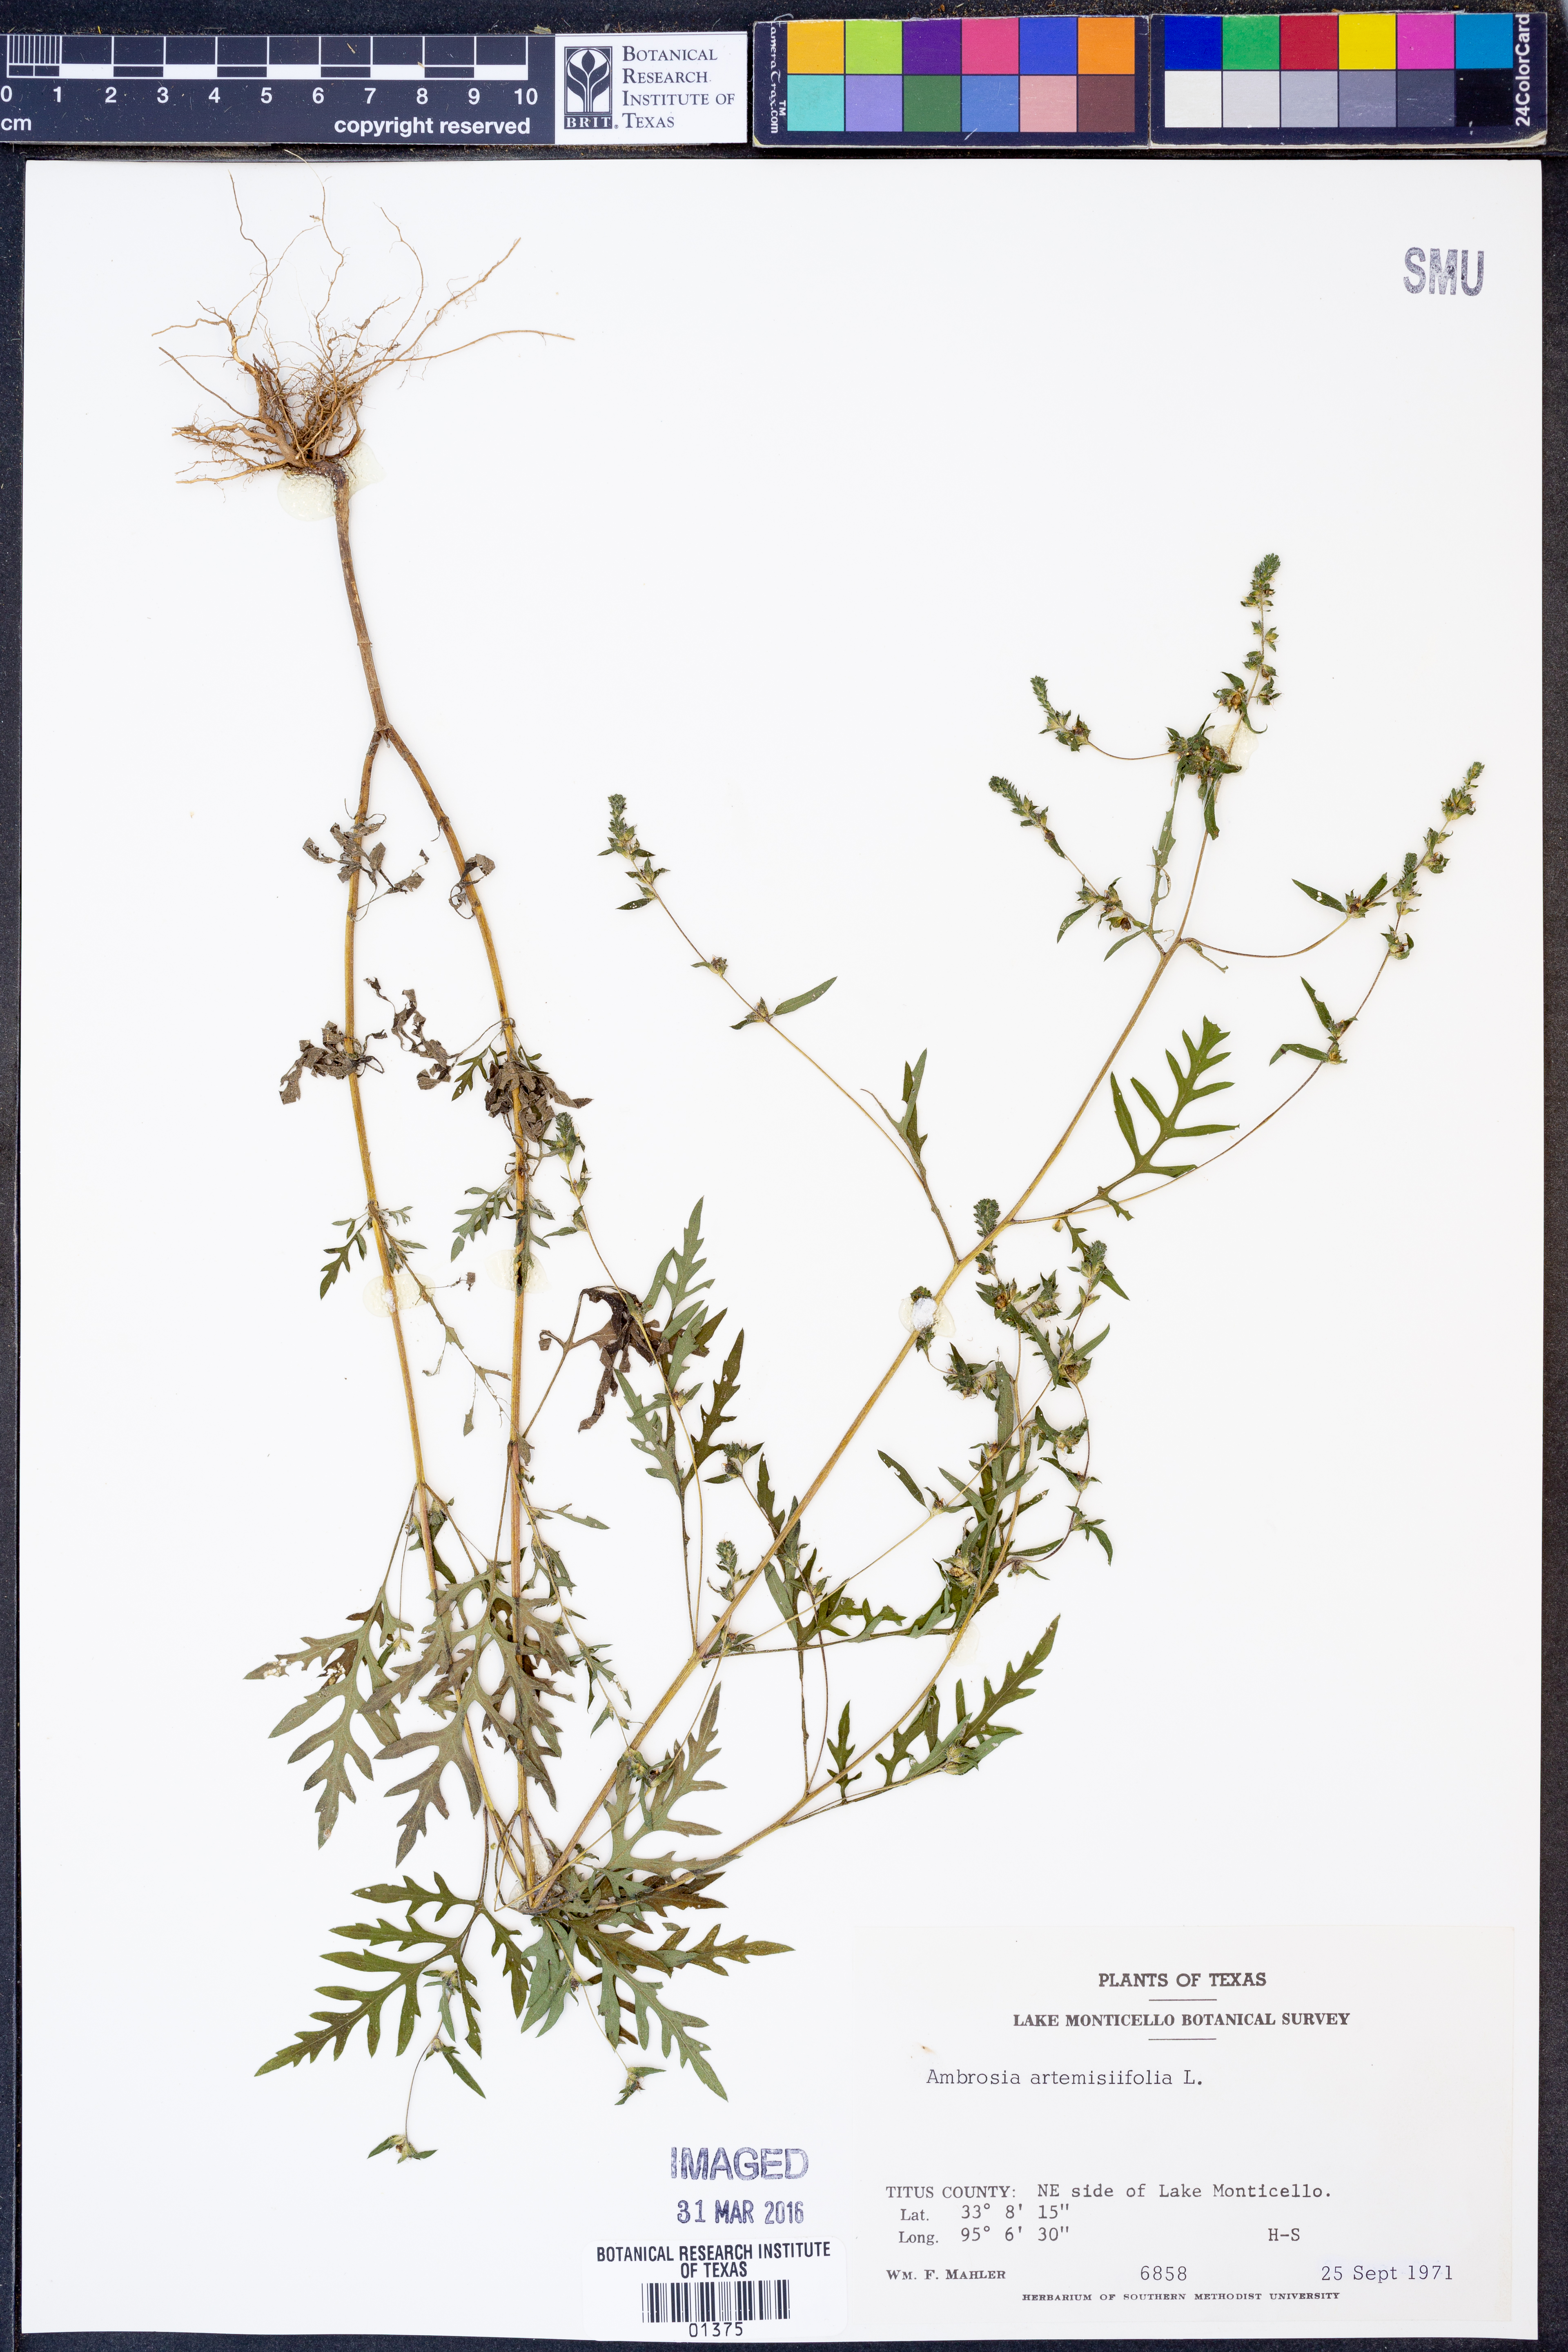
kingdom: Plantae
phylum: Tracheophyta
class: Magnoliopsida
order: Asterales
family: Asteraceae
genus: Ambrosia
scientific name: Ambrosia artemisiifolia
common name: Annual ragweed
